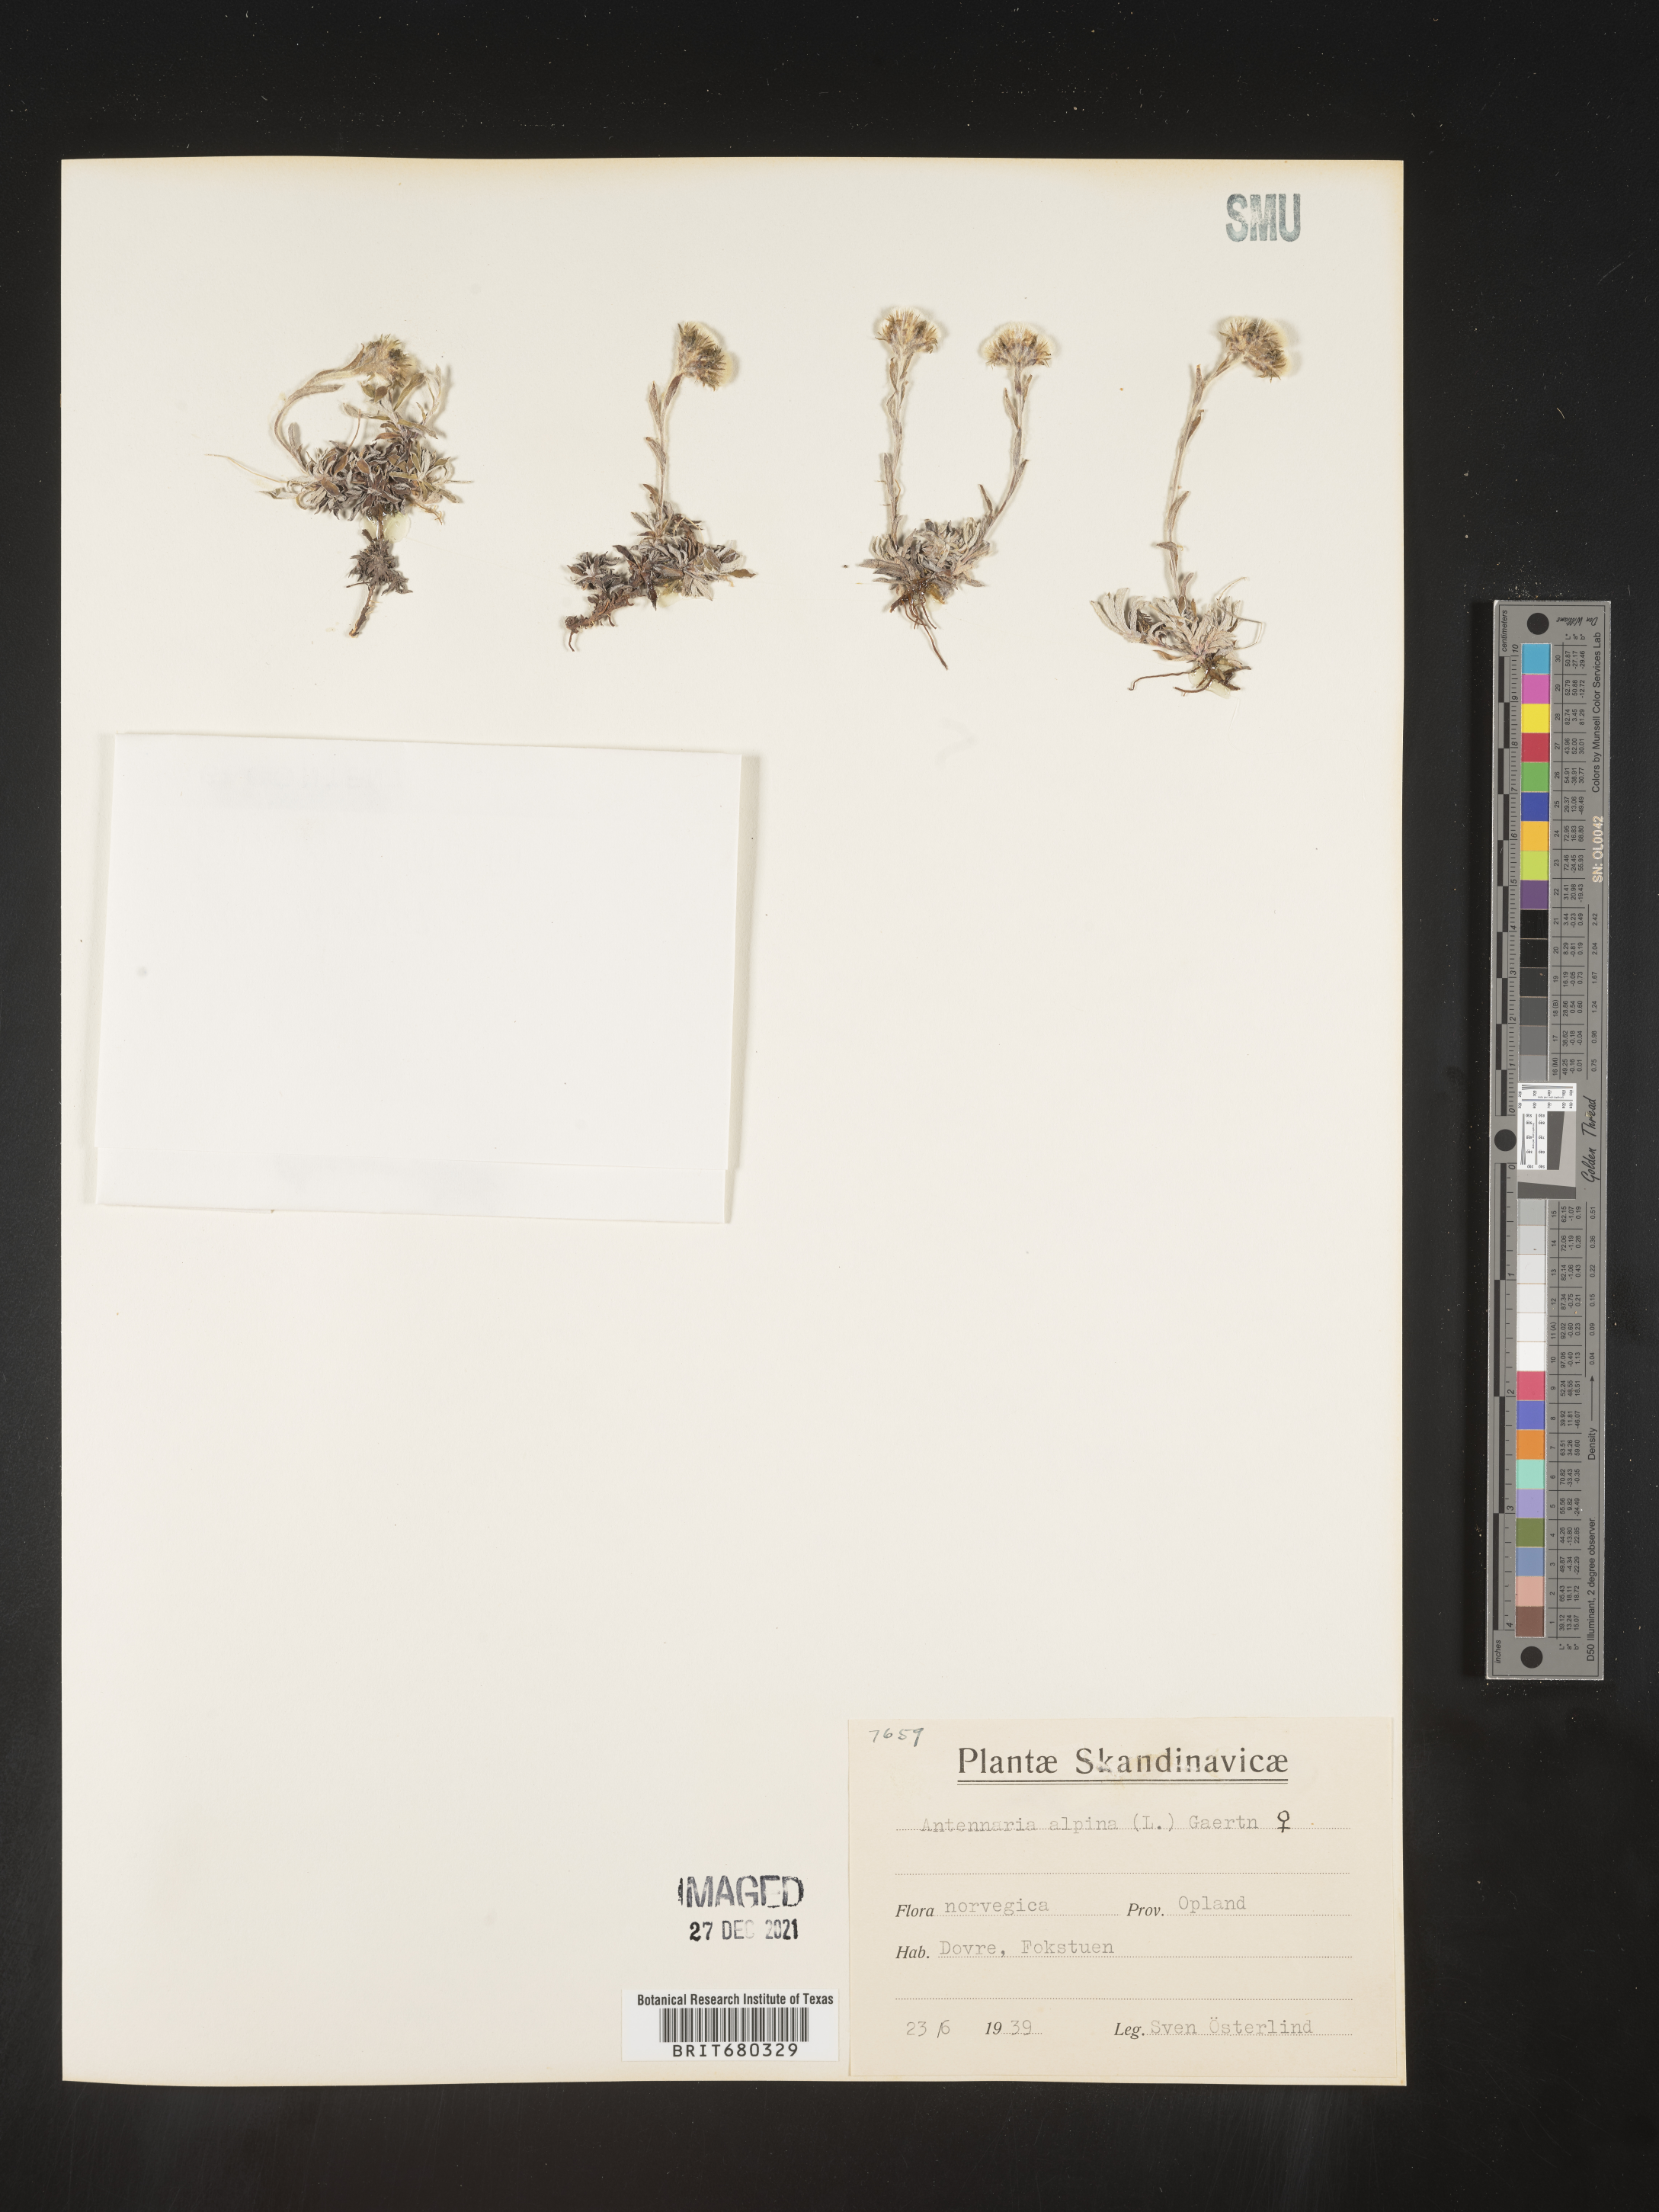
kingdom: Plantae
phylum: Tracheophyta
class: Magnoliopsida
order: Asterales
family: Asteraceae
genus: Antennaria
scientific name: Antennaria
